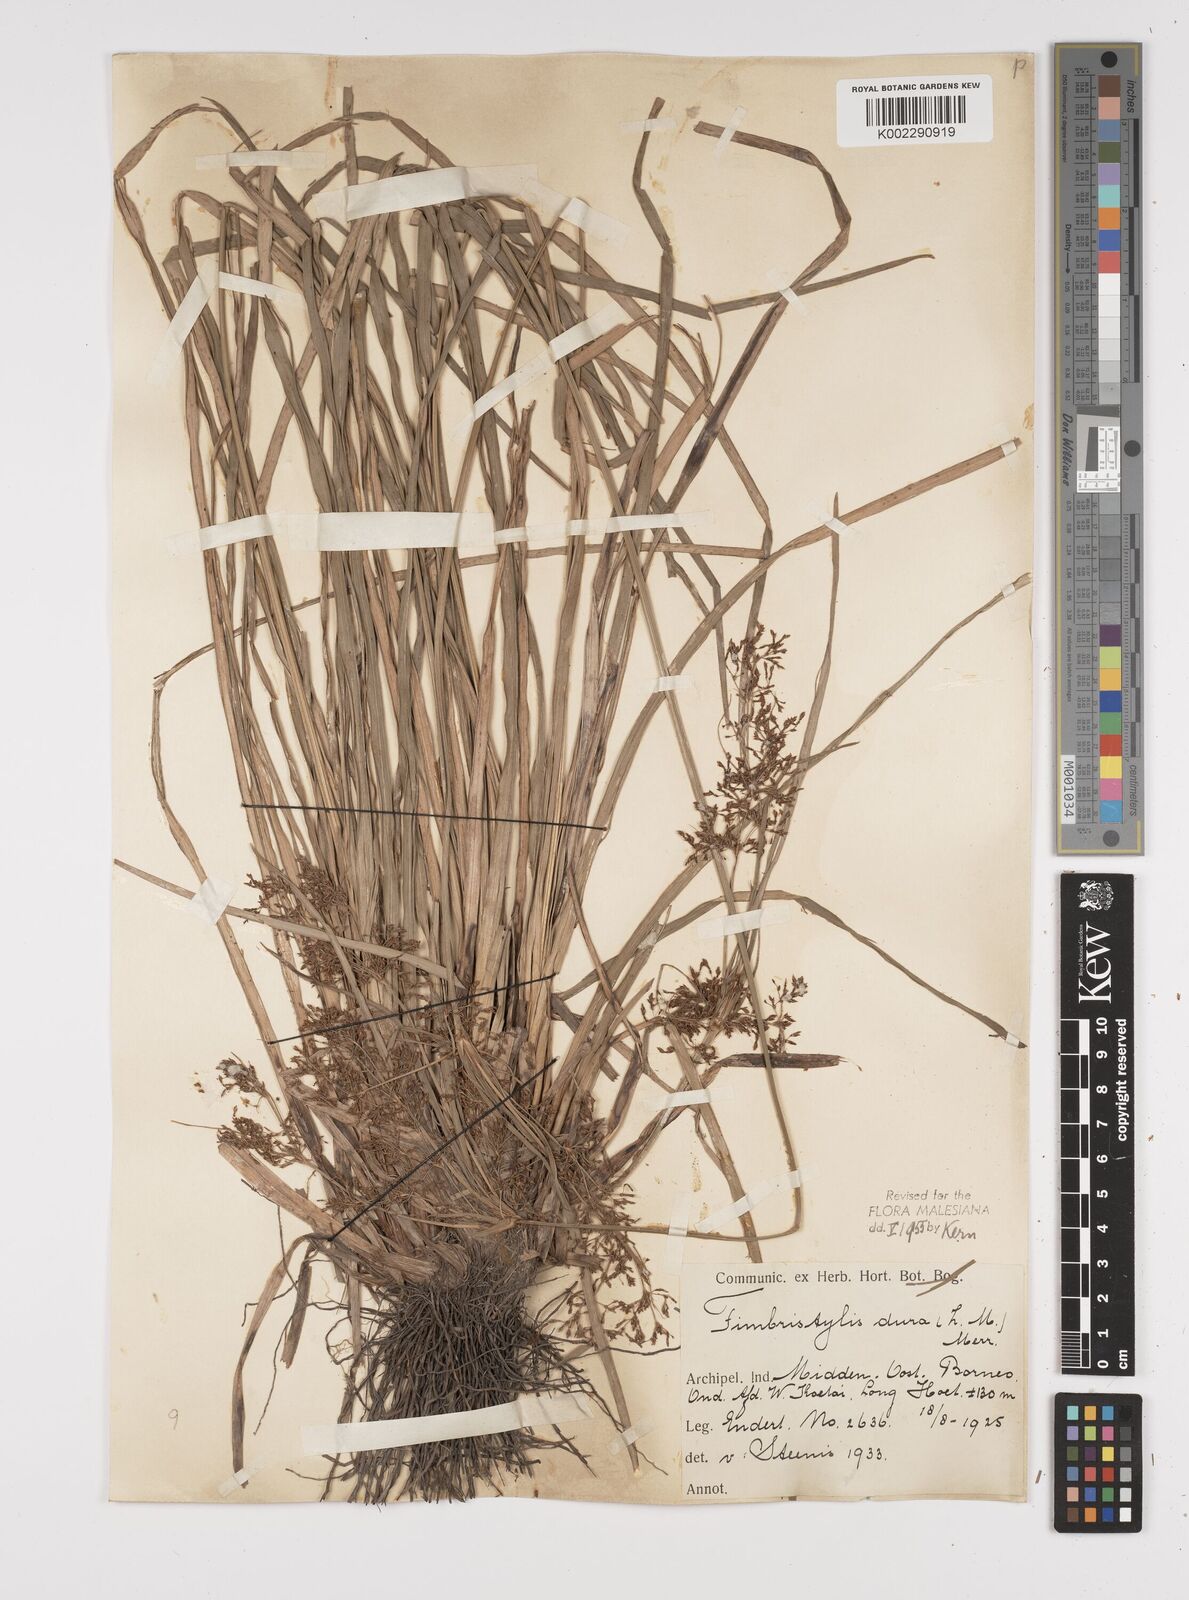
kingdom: Plantae
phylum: Tracheophyta
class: Liliopsida
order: Poales
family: Cyperaceae
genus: Fimbristylis
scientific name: Fimbristylis dura
